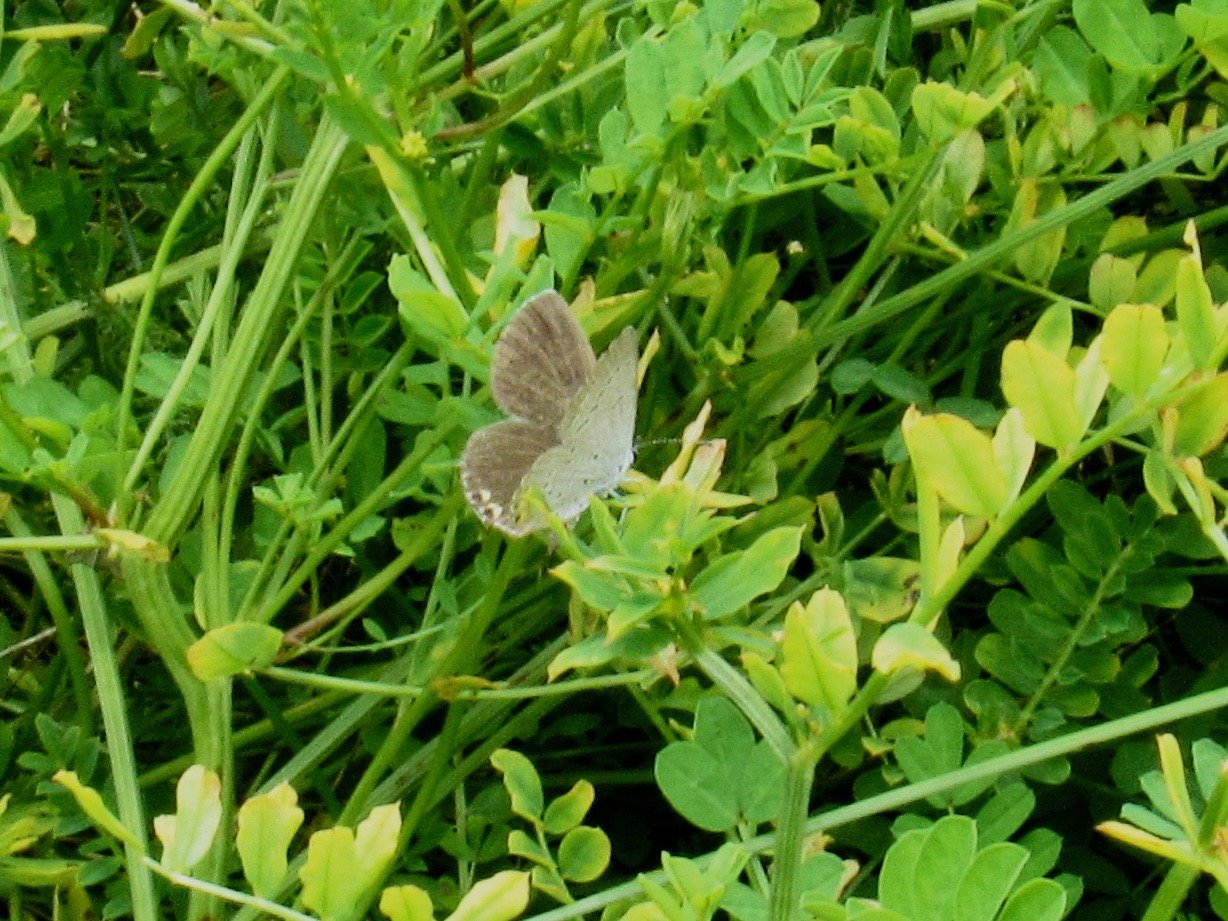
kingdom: Animalia
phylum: Arthropoda
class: Insecta
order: Lepidoptera
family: Lycaenidae
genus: Elkalyce
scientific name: Elkalyce comyntas
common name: Eastern Tailed-Blue
